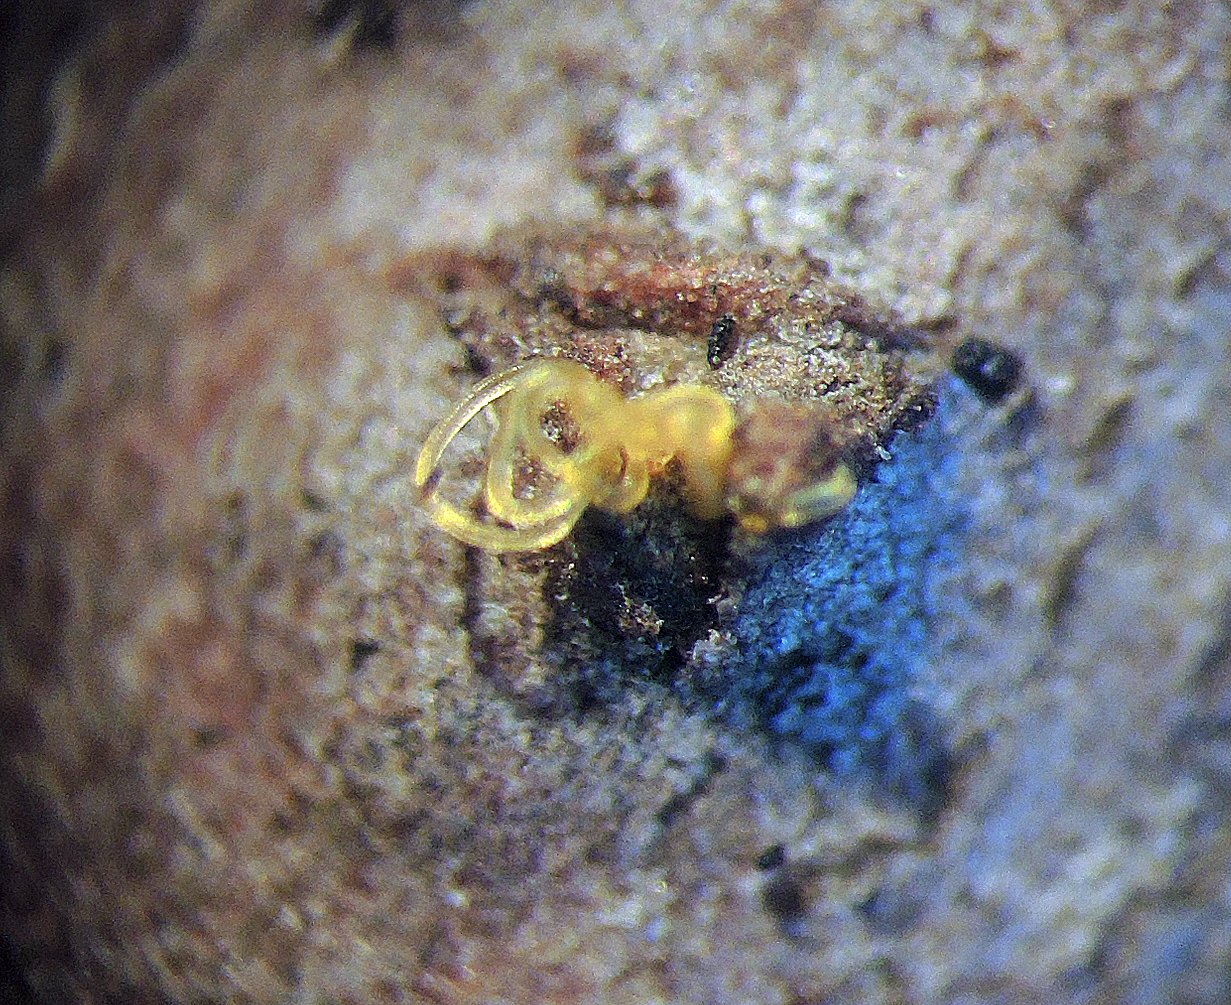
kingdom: Fungi
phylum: Ascomycota
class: Sordariomycetes
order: Diaporthales
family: Valsaceae
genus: Cytospora
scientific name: Cytospora chrysosperma
